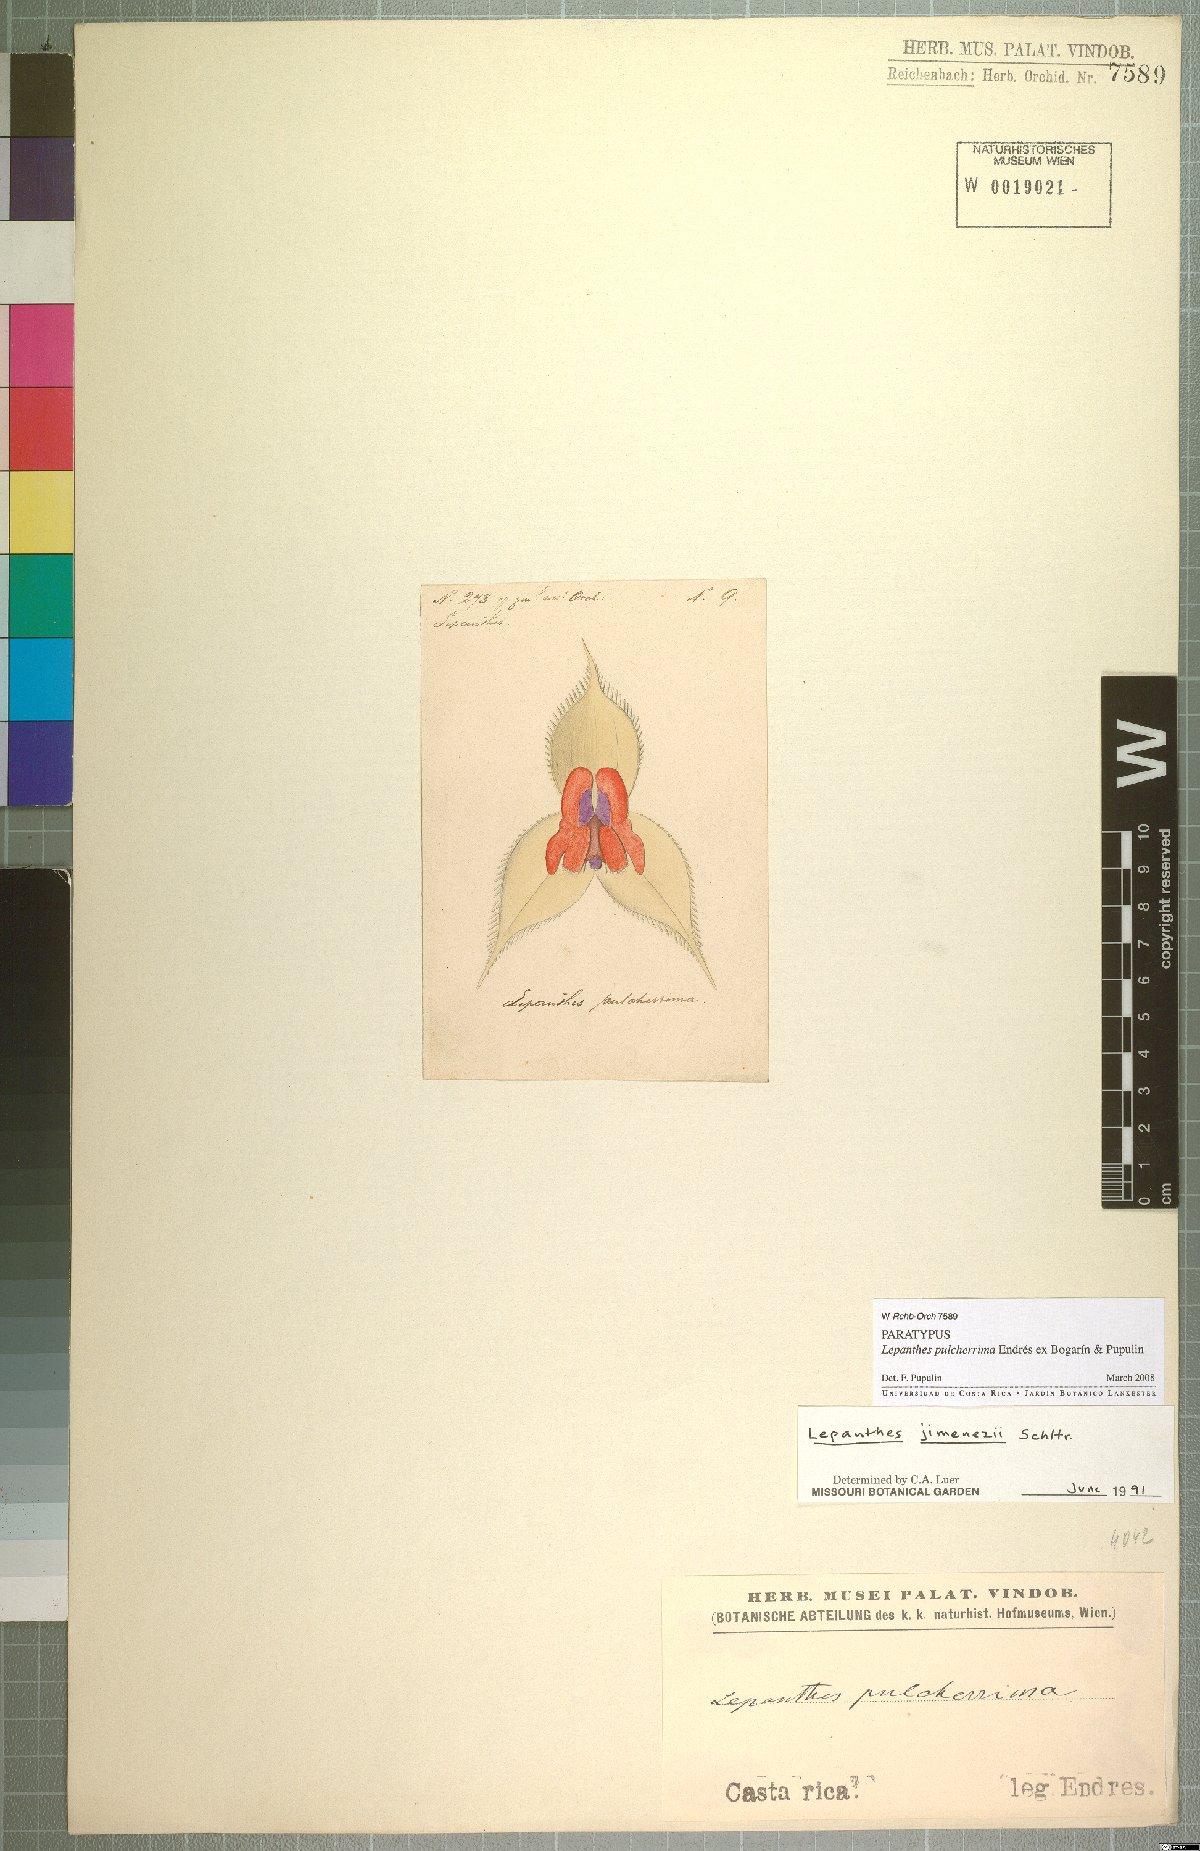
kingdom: Plantae
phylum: Tracheophyta
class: Liliopsida
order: Asparagales
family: Orchidaceae
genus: Lepanthes
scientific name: Lepanthes pulcherrima
